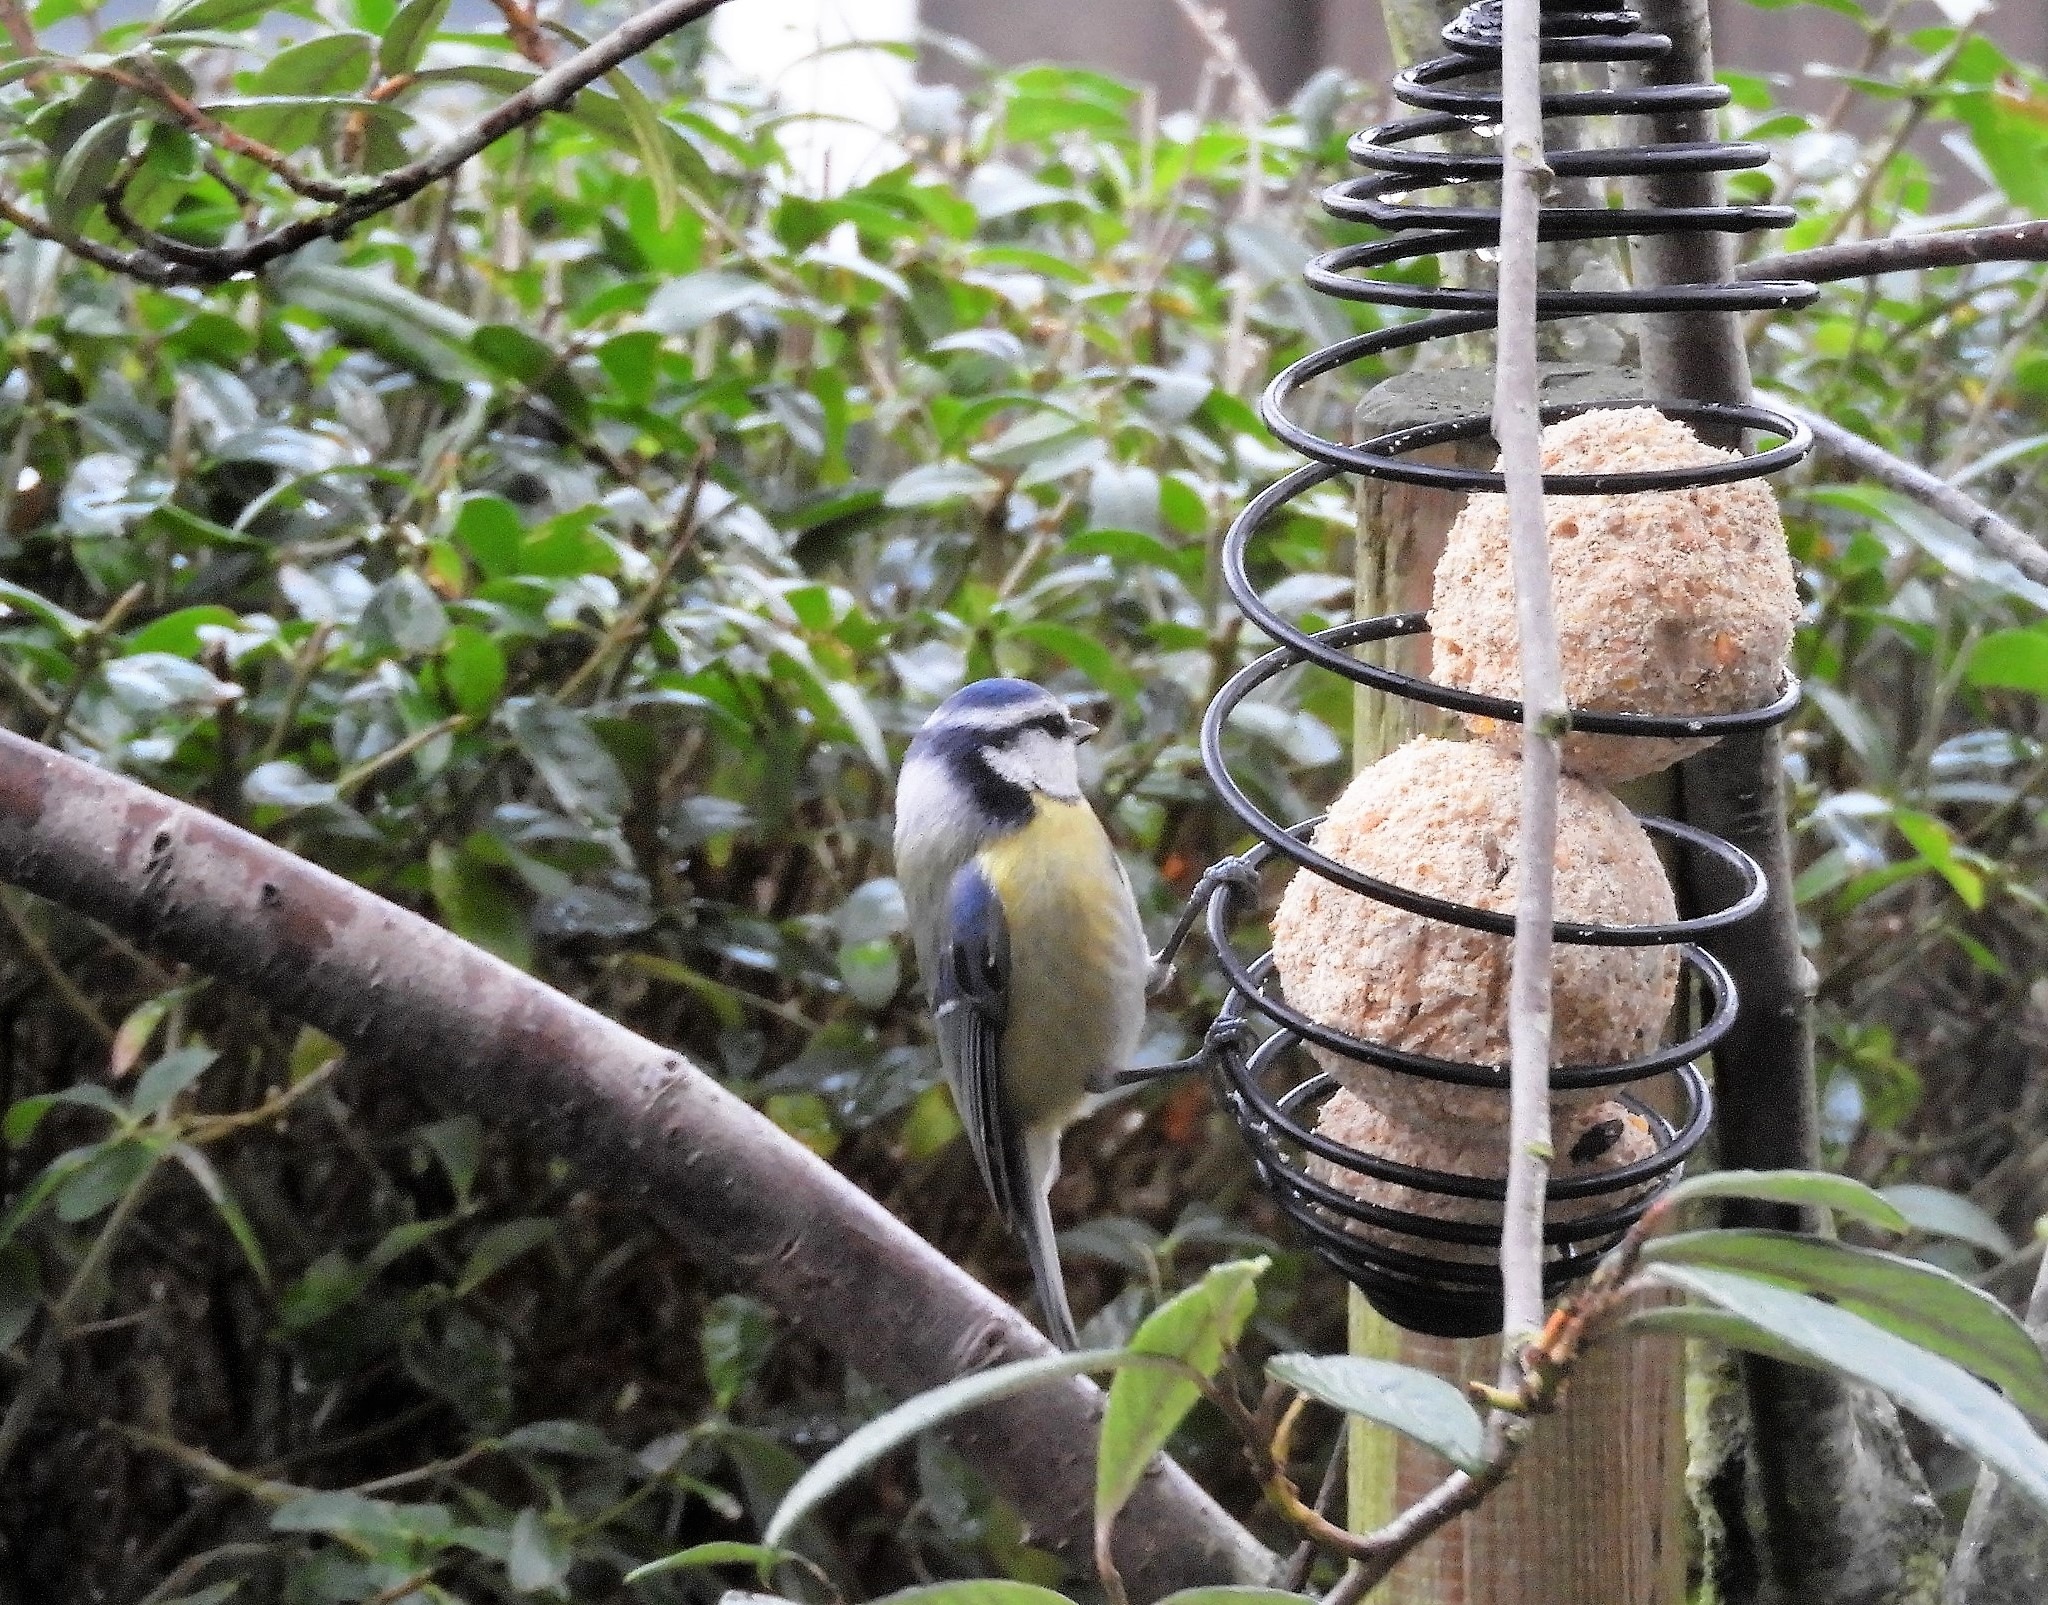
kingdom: Animalia
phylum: Chordata
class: Aves
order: Passeriformes
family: Paridae
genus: Cyanistes
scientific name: Cyanistes caeruleus
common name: Blåmejse
